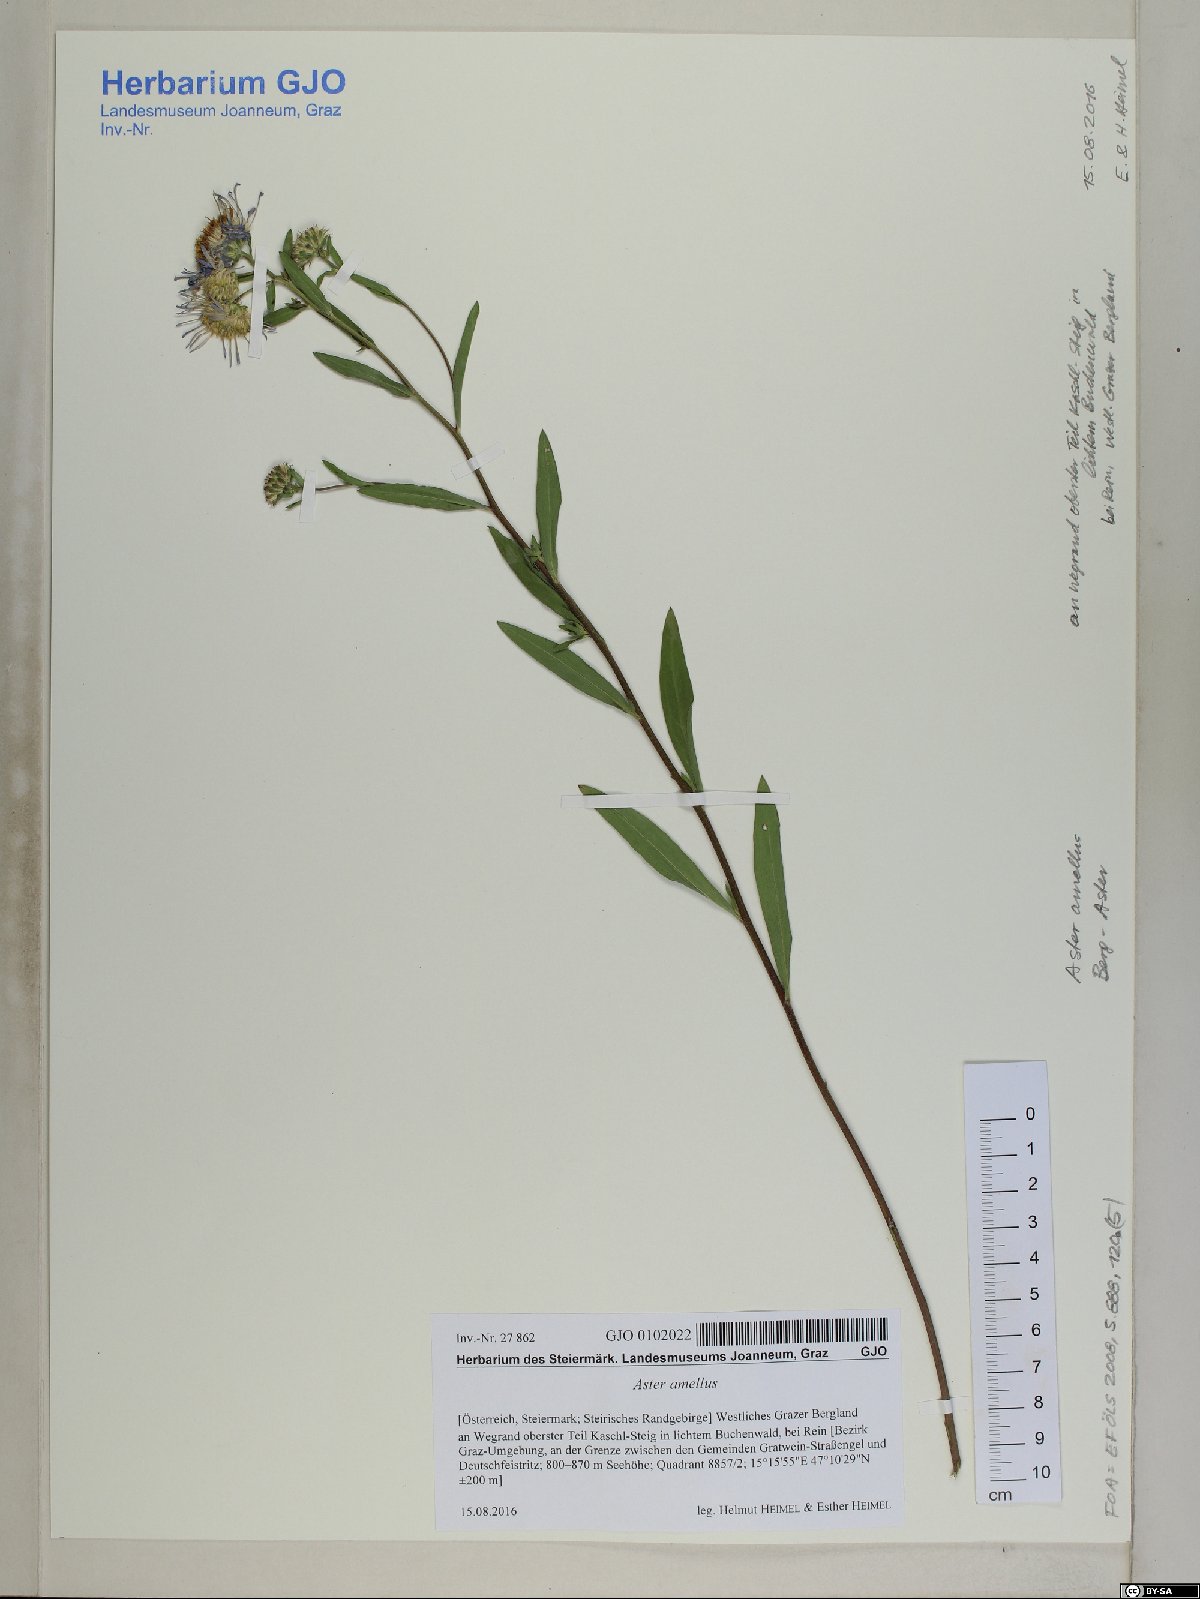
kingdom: Plantae
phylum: Tracheophyta
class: Magnoliopsida
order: Asterales
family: Asteraceae
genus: Aster
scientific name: Aster amellus
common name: European michaelmas daisy
